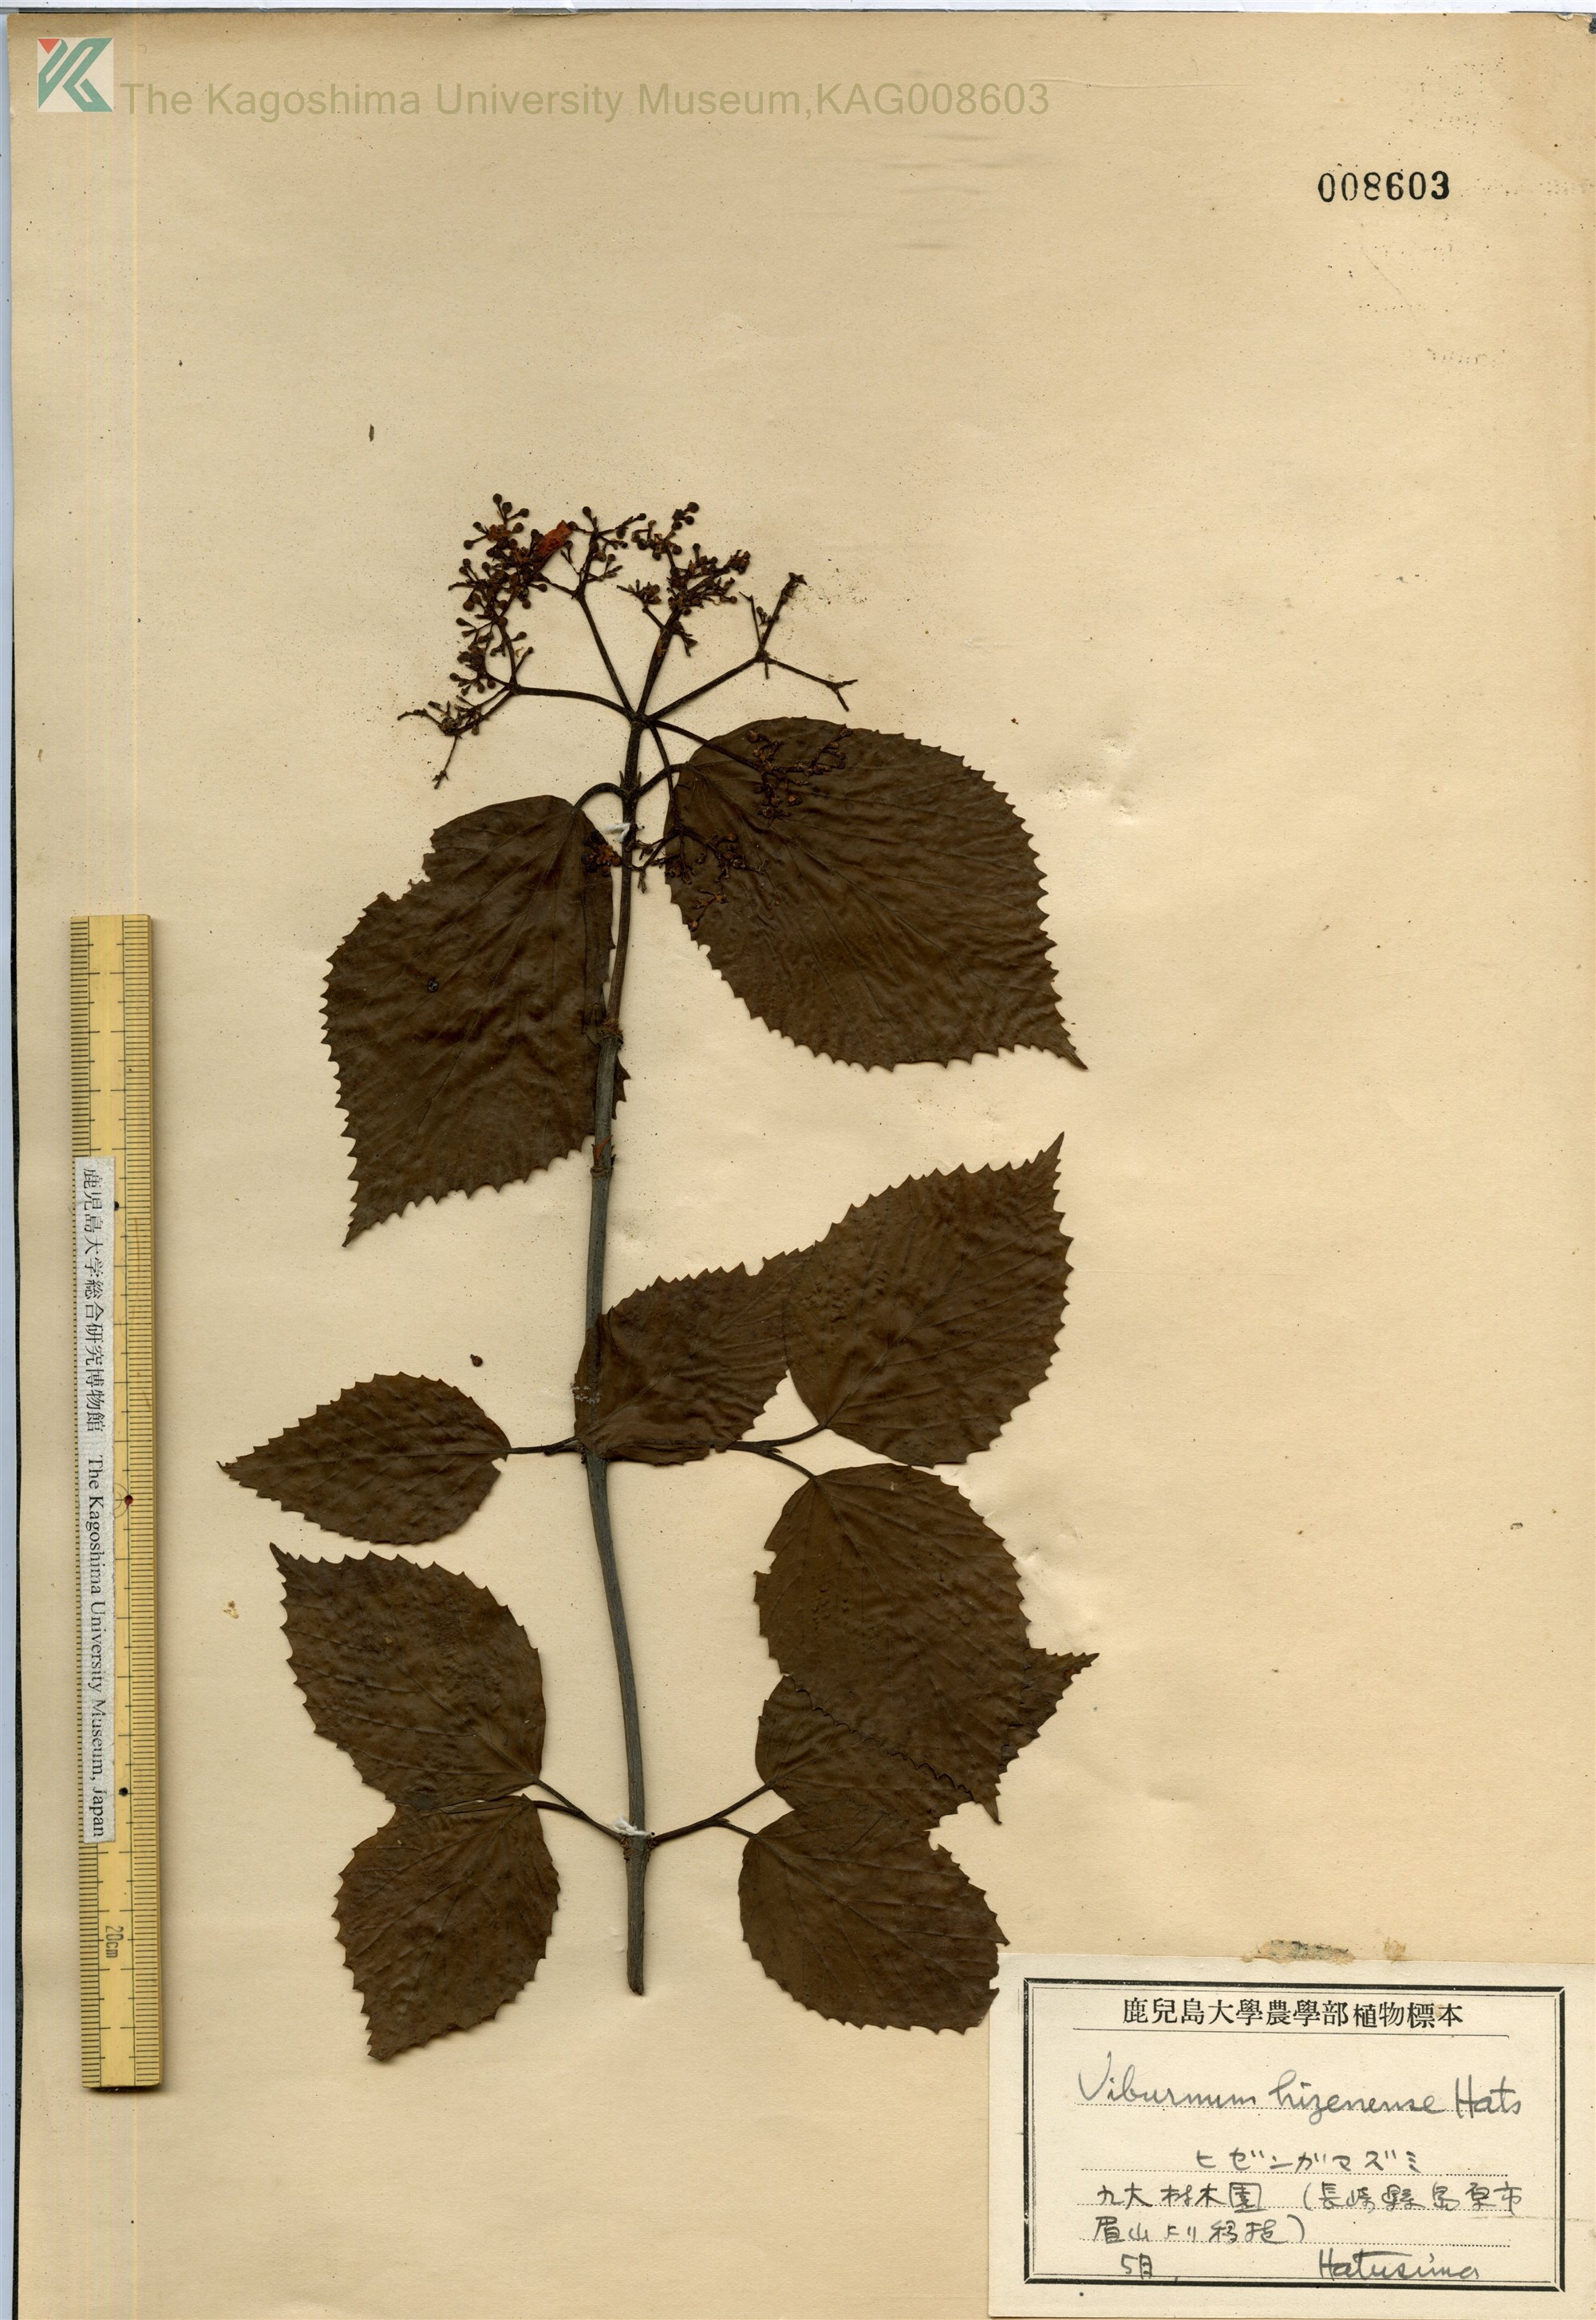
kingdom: Plantae
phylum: Tracheophyta
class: Magnoliopsida
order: Dipsacales
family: Viburnaceae
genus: Viburnum
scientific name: Viburnum hizenense
